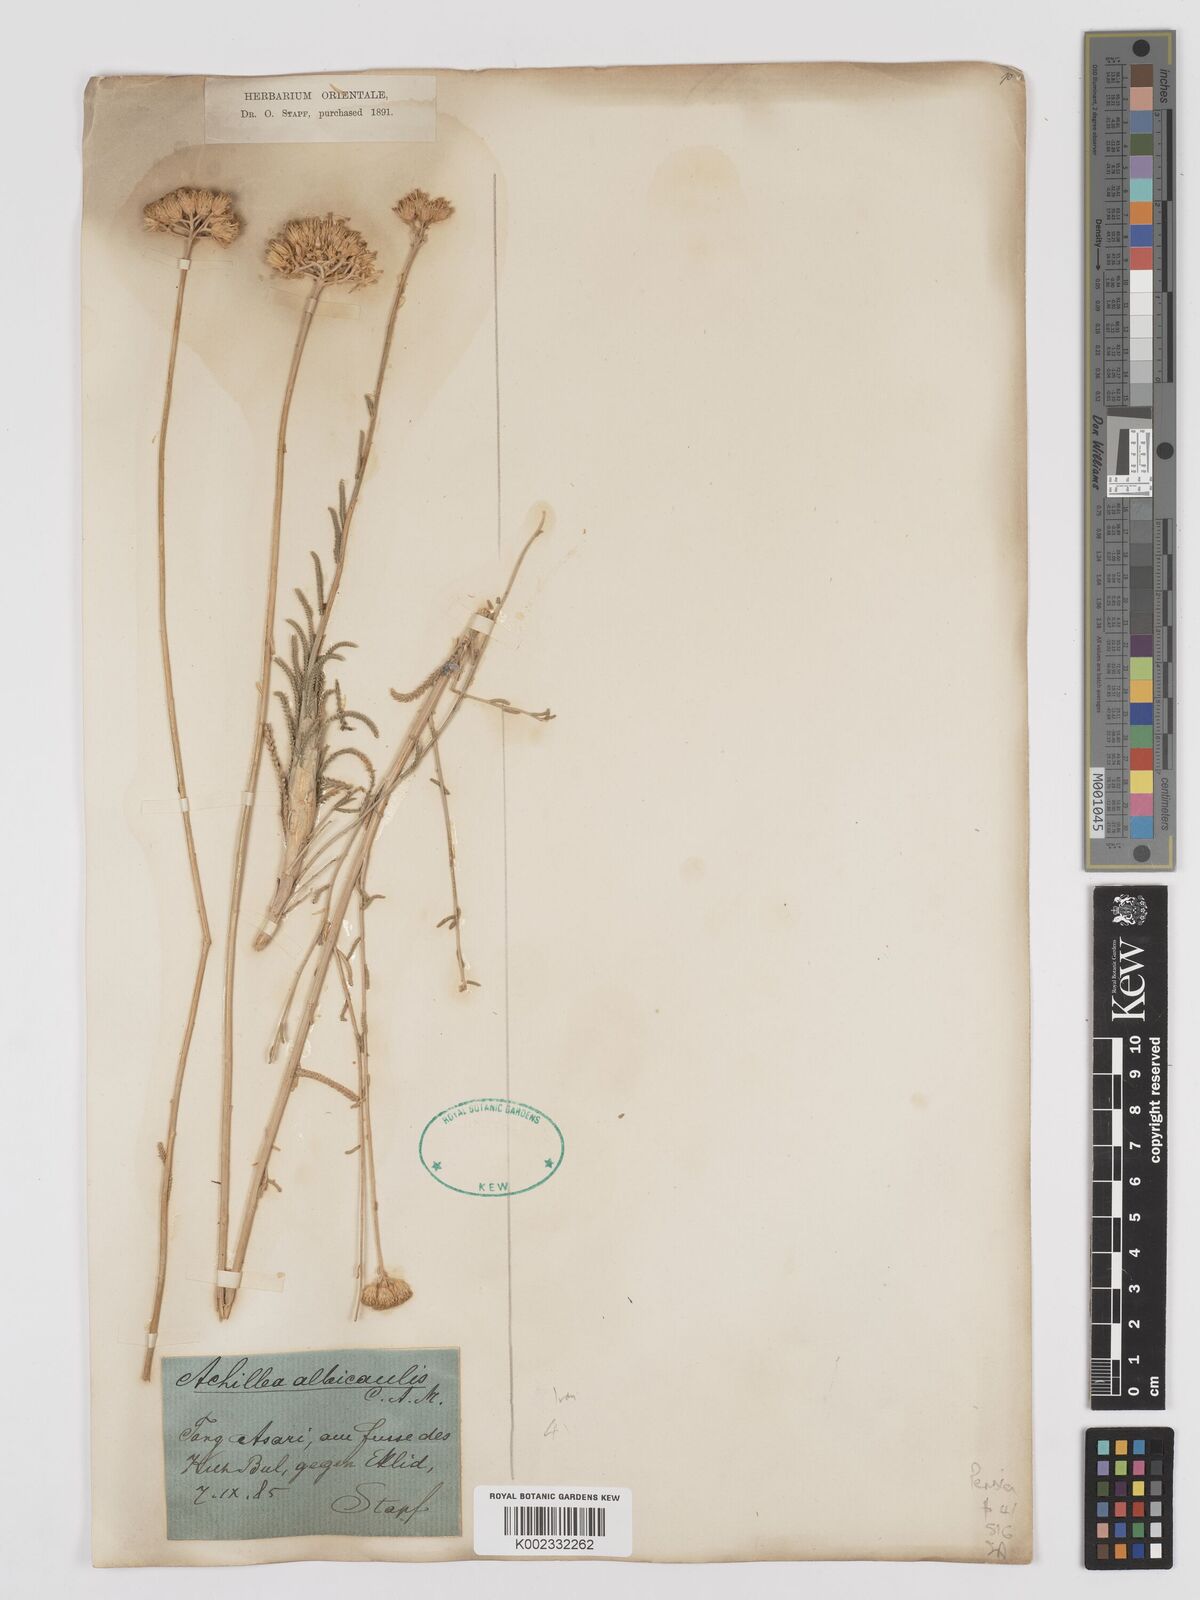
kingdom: Plantae
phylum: Tracheophyta
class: Magnoliopsida
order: Asterales
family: Asteraceae
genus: Achillea
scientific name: Achillea tenuifolia
